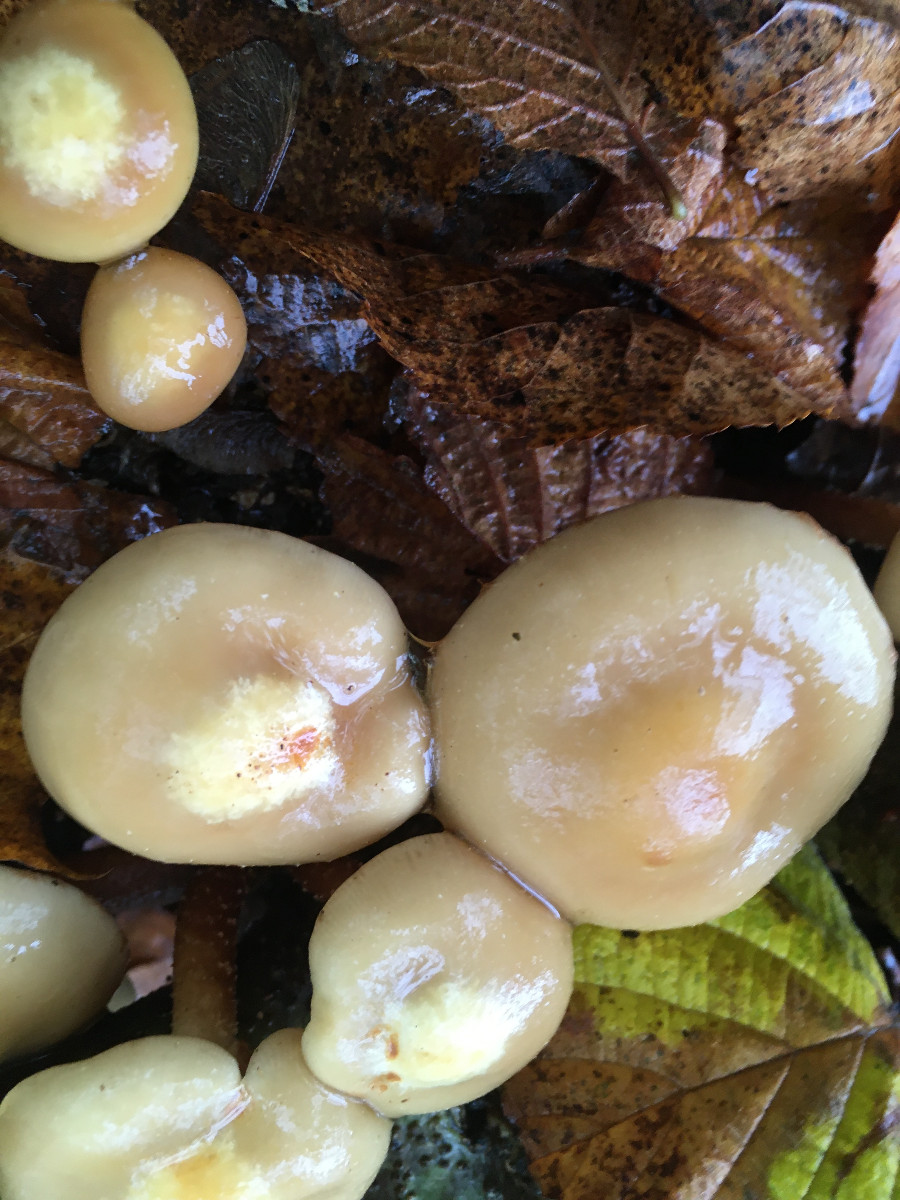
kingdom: Fungi
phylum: Basidiomycota
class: Agaricomycetes
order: Agaricales
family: Strophariaceae
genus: Kuehneromyces
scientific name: Kuehneromyces mutabilis
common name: foranderlig skælhat
